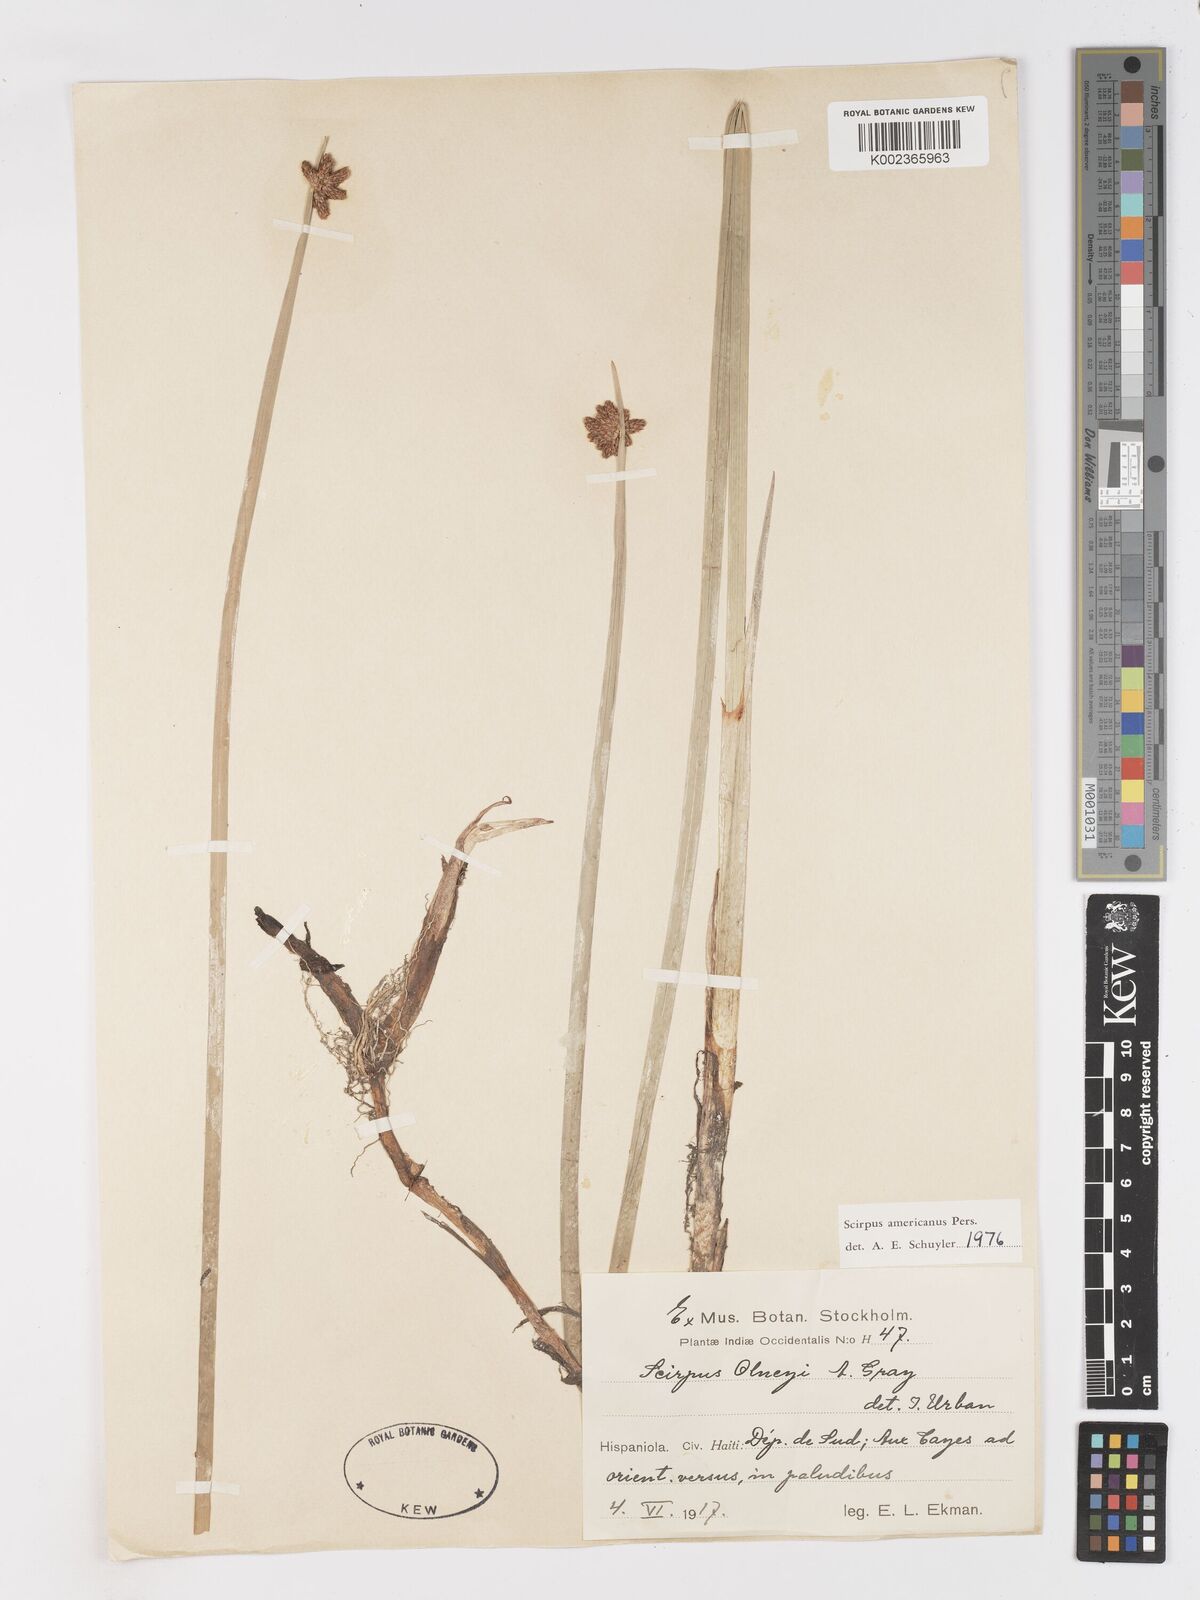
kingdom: Plantae
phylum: Tracheophyta
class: Liliopsida
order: Poales
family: Cyperaceae
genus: Schoenoplectus
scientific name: Schoenoplectus americanus
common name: American three-square bulrush
